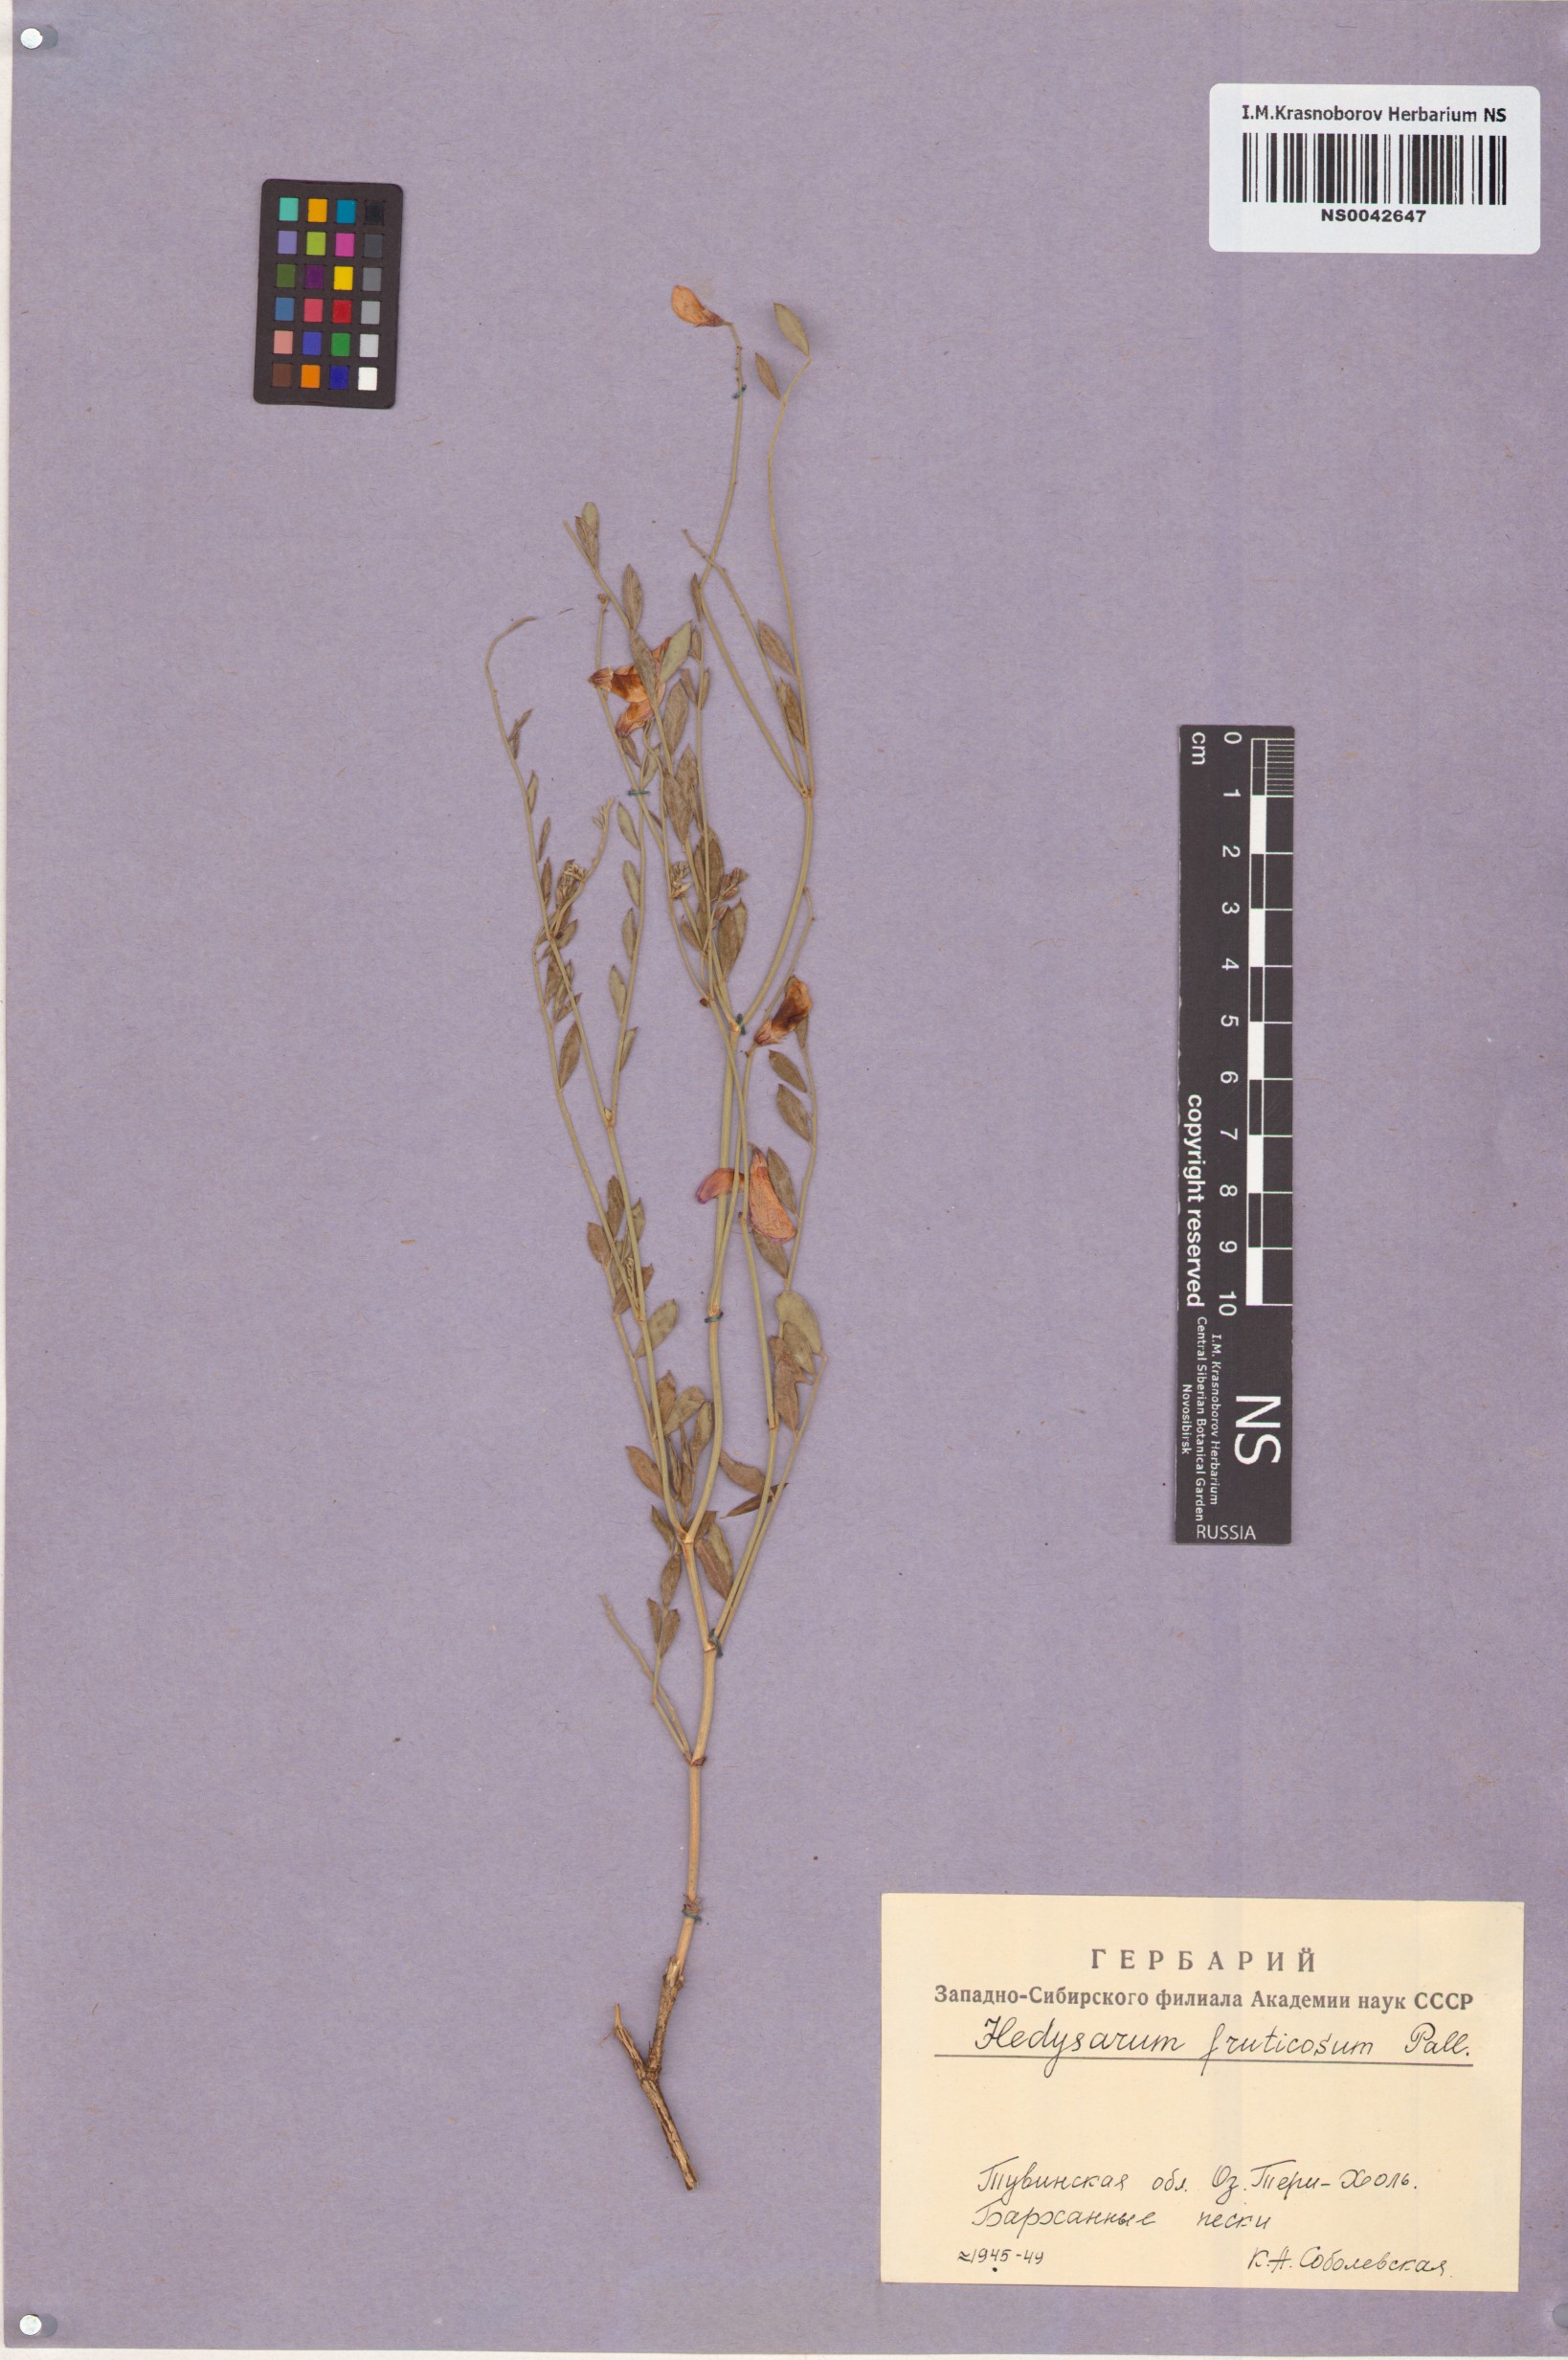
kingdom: Plantae
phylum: Tracheophyta
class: Magnoliopsida
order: Fabales
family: Fabaceae
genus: Corethrodendron
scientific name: Corethrodendron fruticosum
